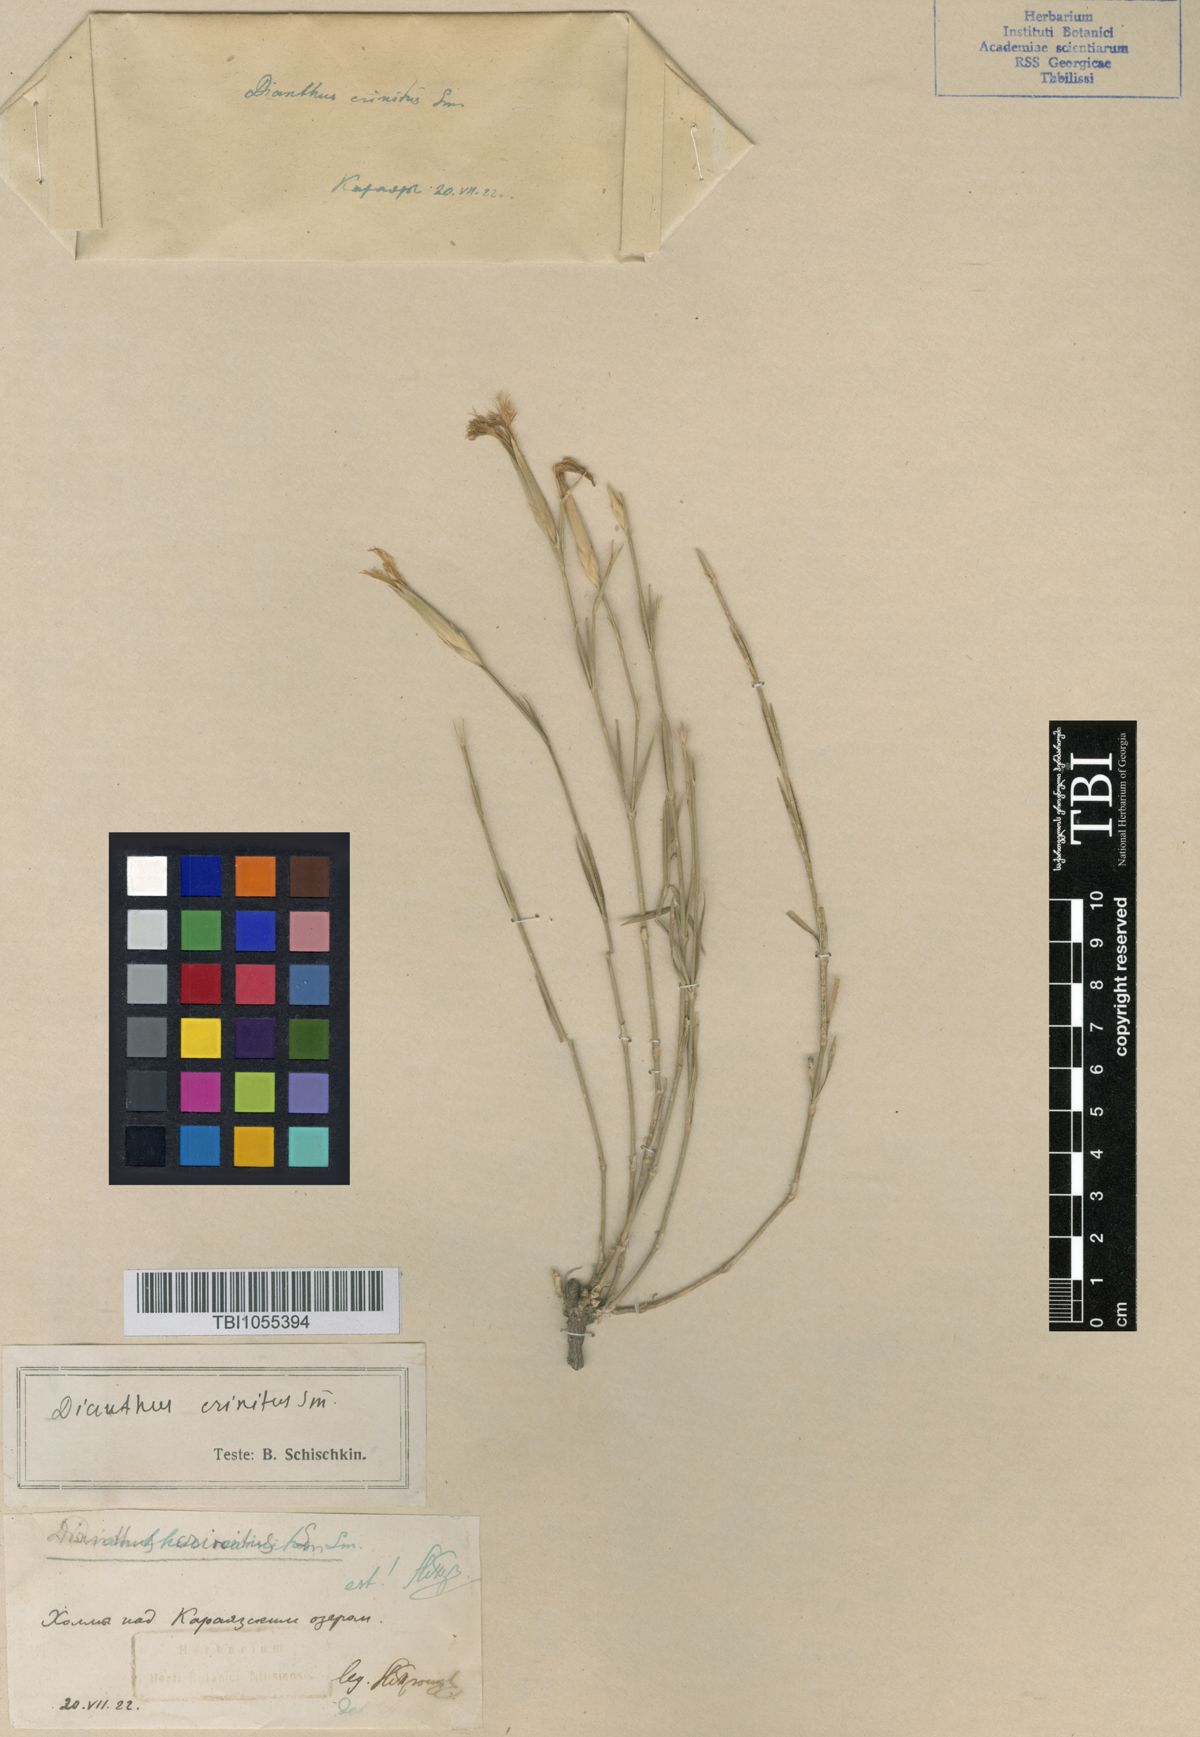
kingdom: Plantae
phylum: Tracheophyta
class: Magnoliopsida
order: Caryophyllales
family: Caryophyllaceae
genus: Dianthus
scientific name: Dianthus crinitus
